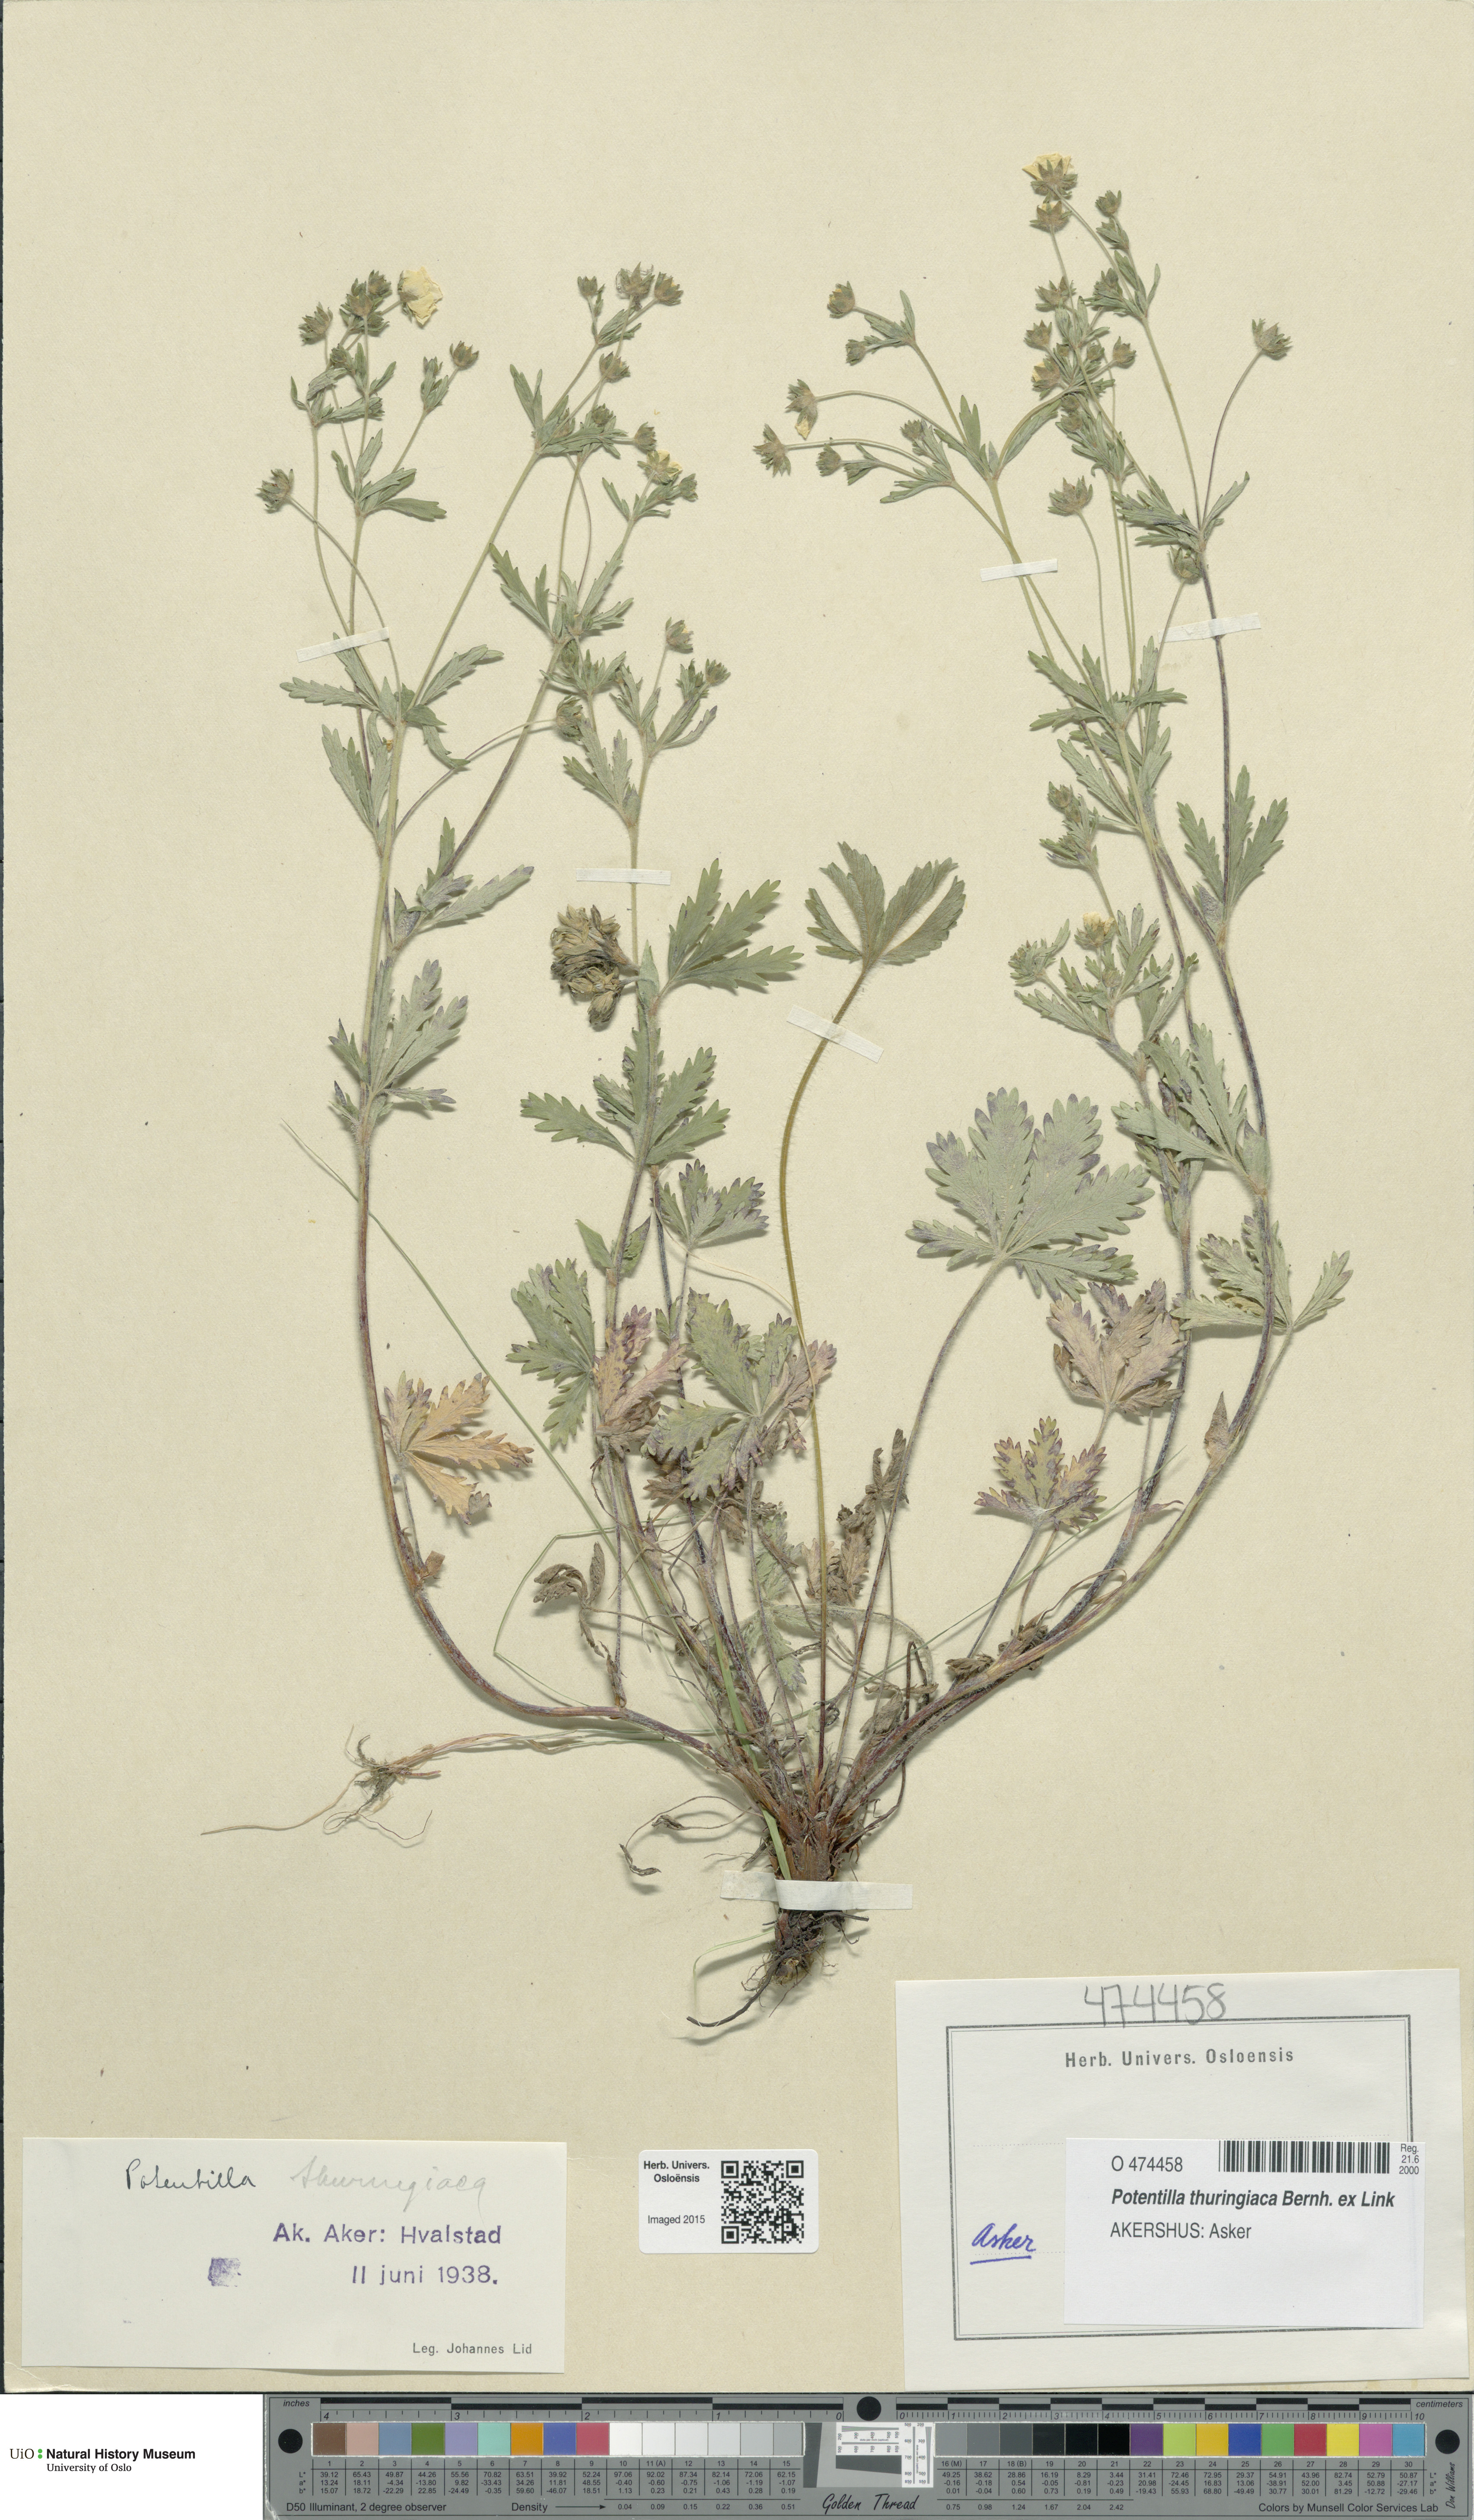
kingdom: Plantae
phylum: Tracheophyta
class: Magnoliopsida
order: Rosales
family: Rosaceae
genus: Potentilla
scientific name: Potentilla thuringiaca
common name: European cinquefoil
